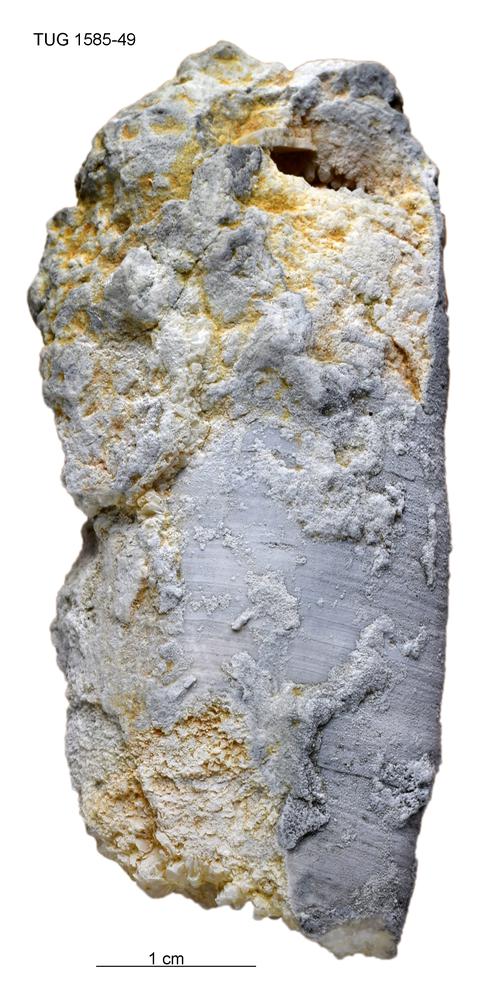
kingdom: Animalia
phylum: Mollusca
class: Cephalopoda
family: Westonoceratidae
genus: Hemibeloitoceras
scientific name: Hemibeloitoceras arduum
